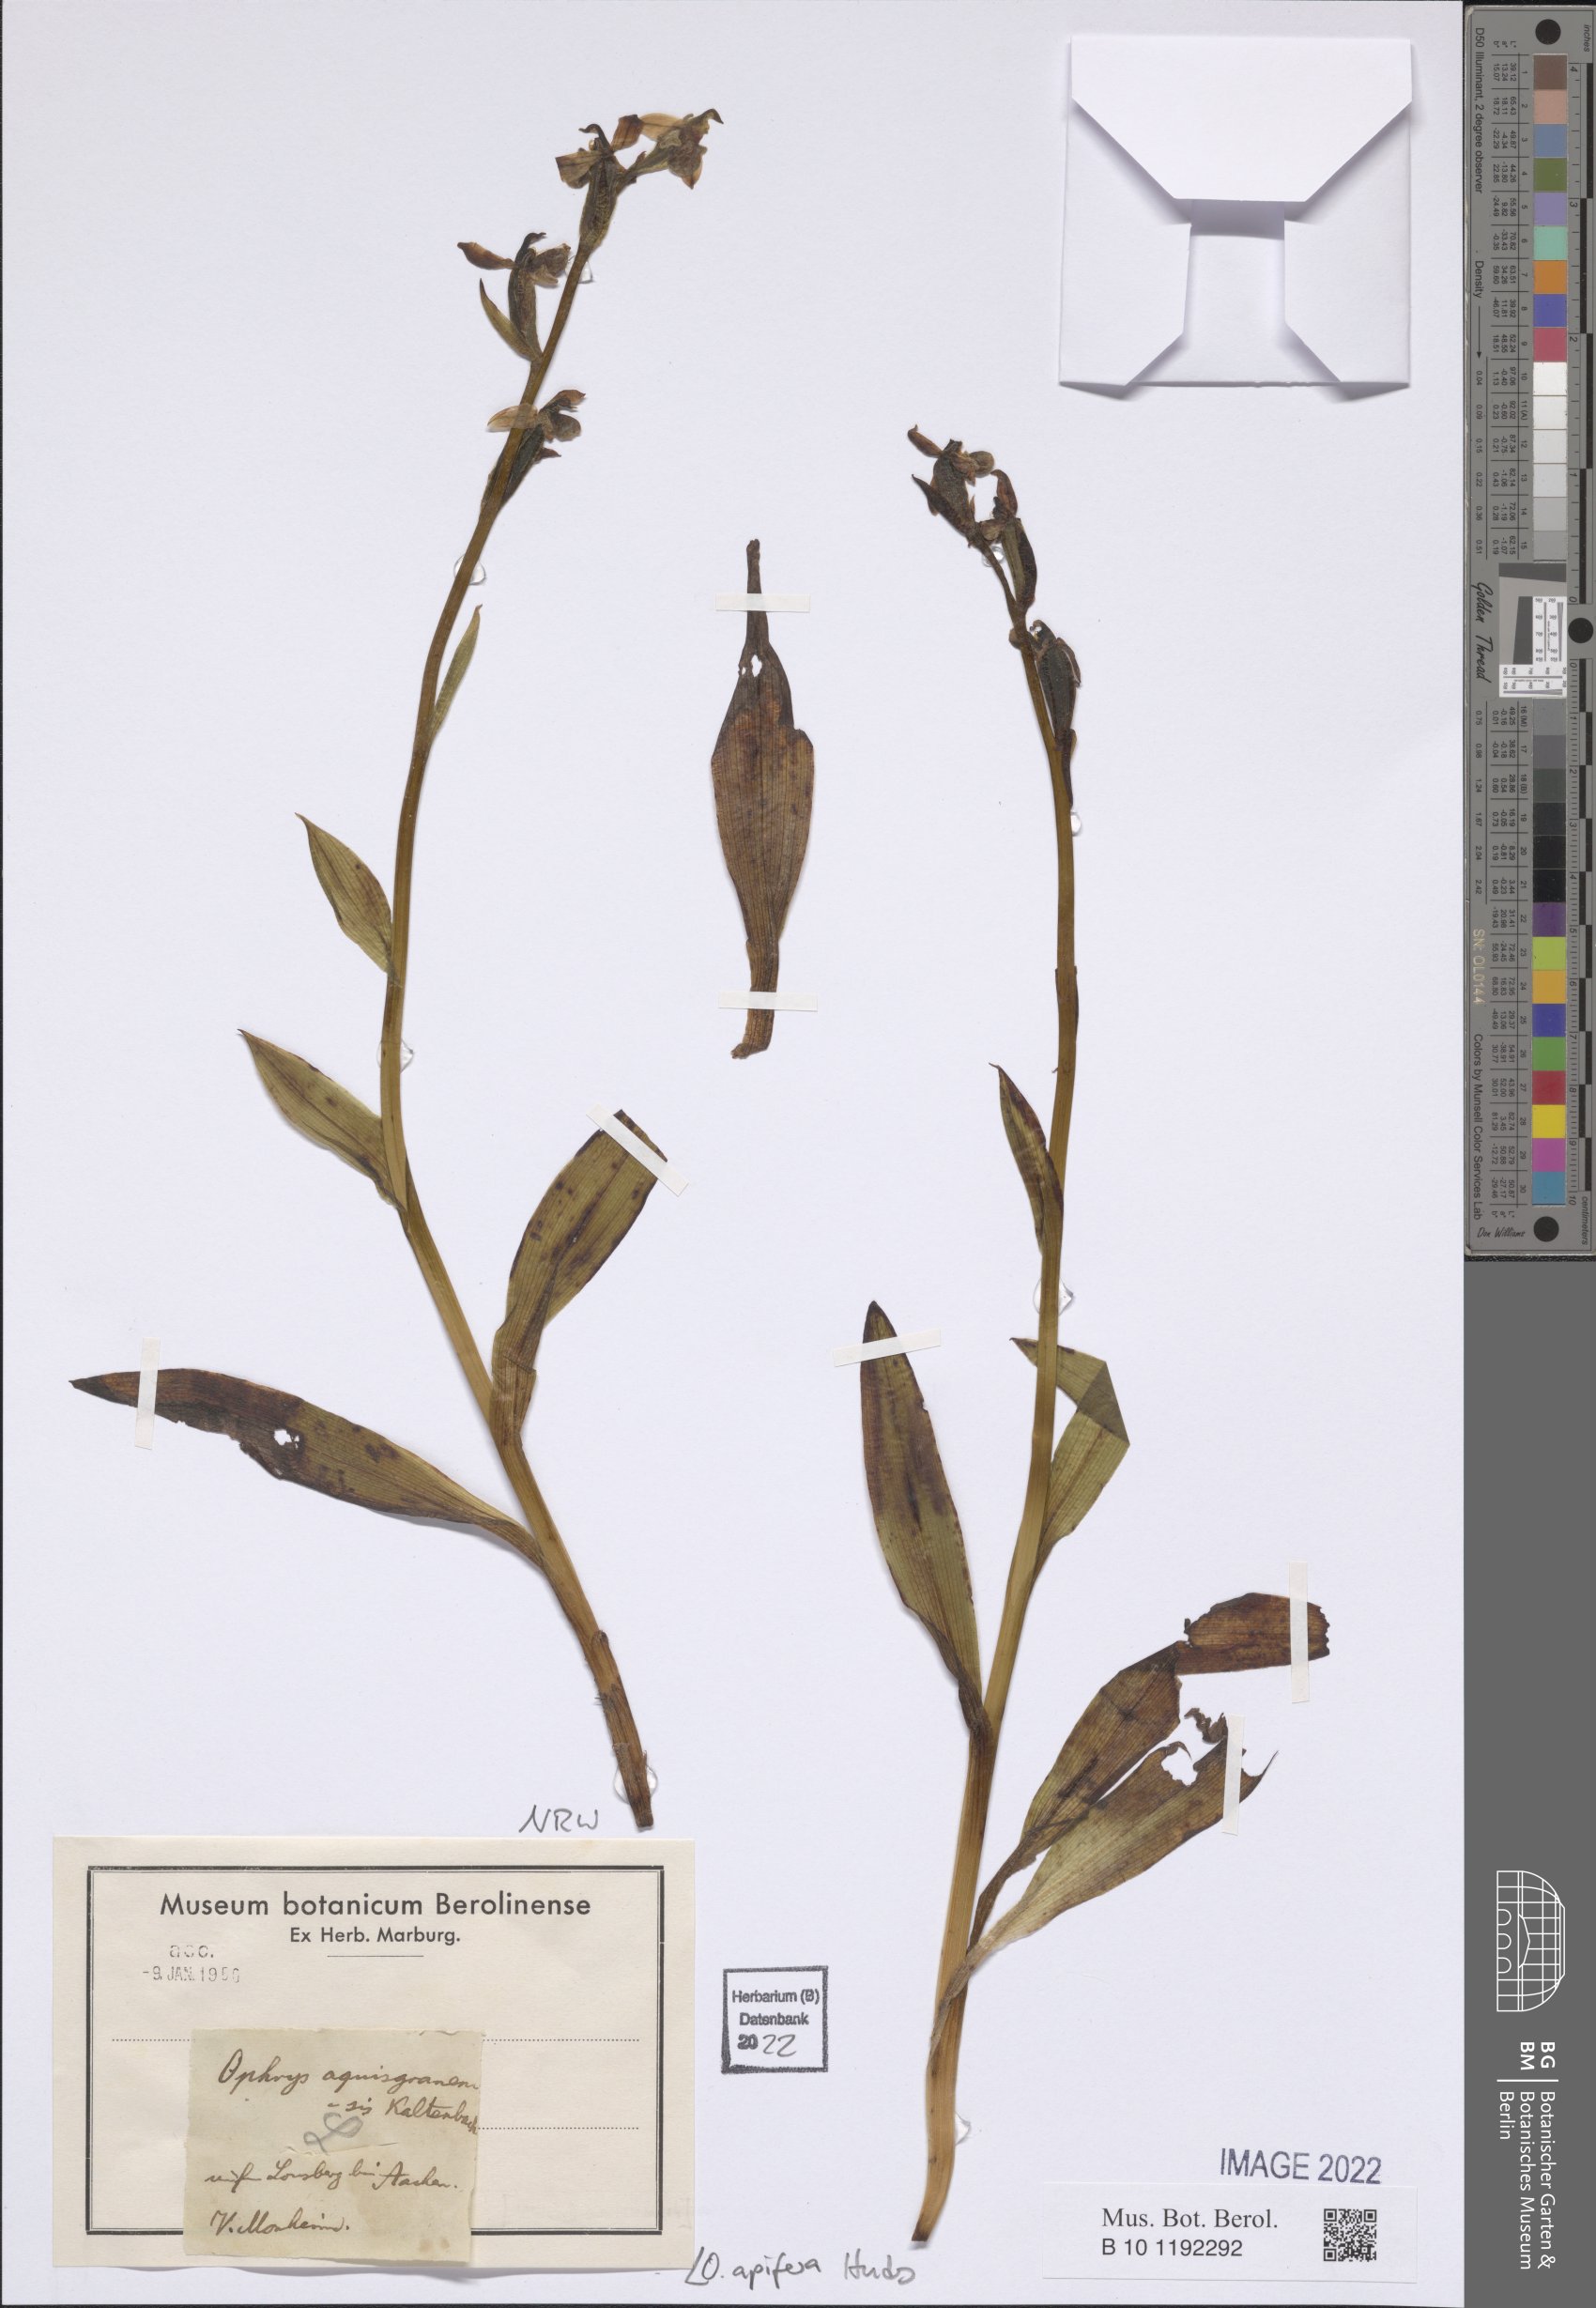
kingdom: Plantae
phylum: Tracheophyta
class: Liliopsida
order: Asparagales
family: Orchidaceae
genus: Ophrys
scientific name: Ophrys apifera
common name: Bee orchid
